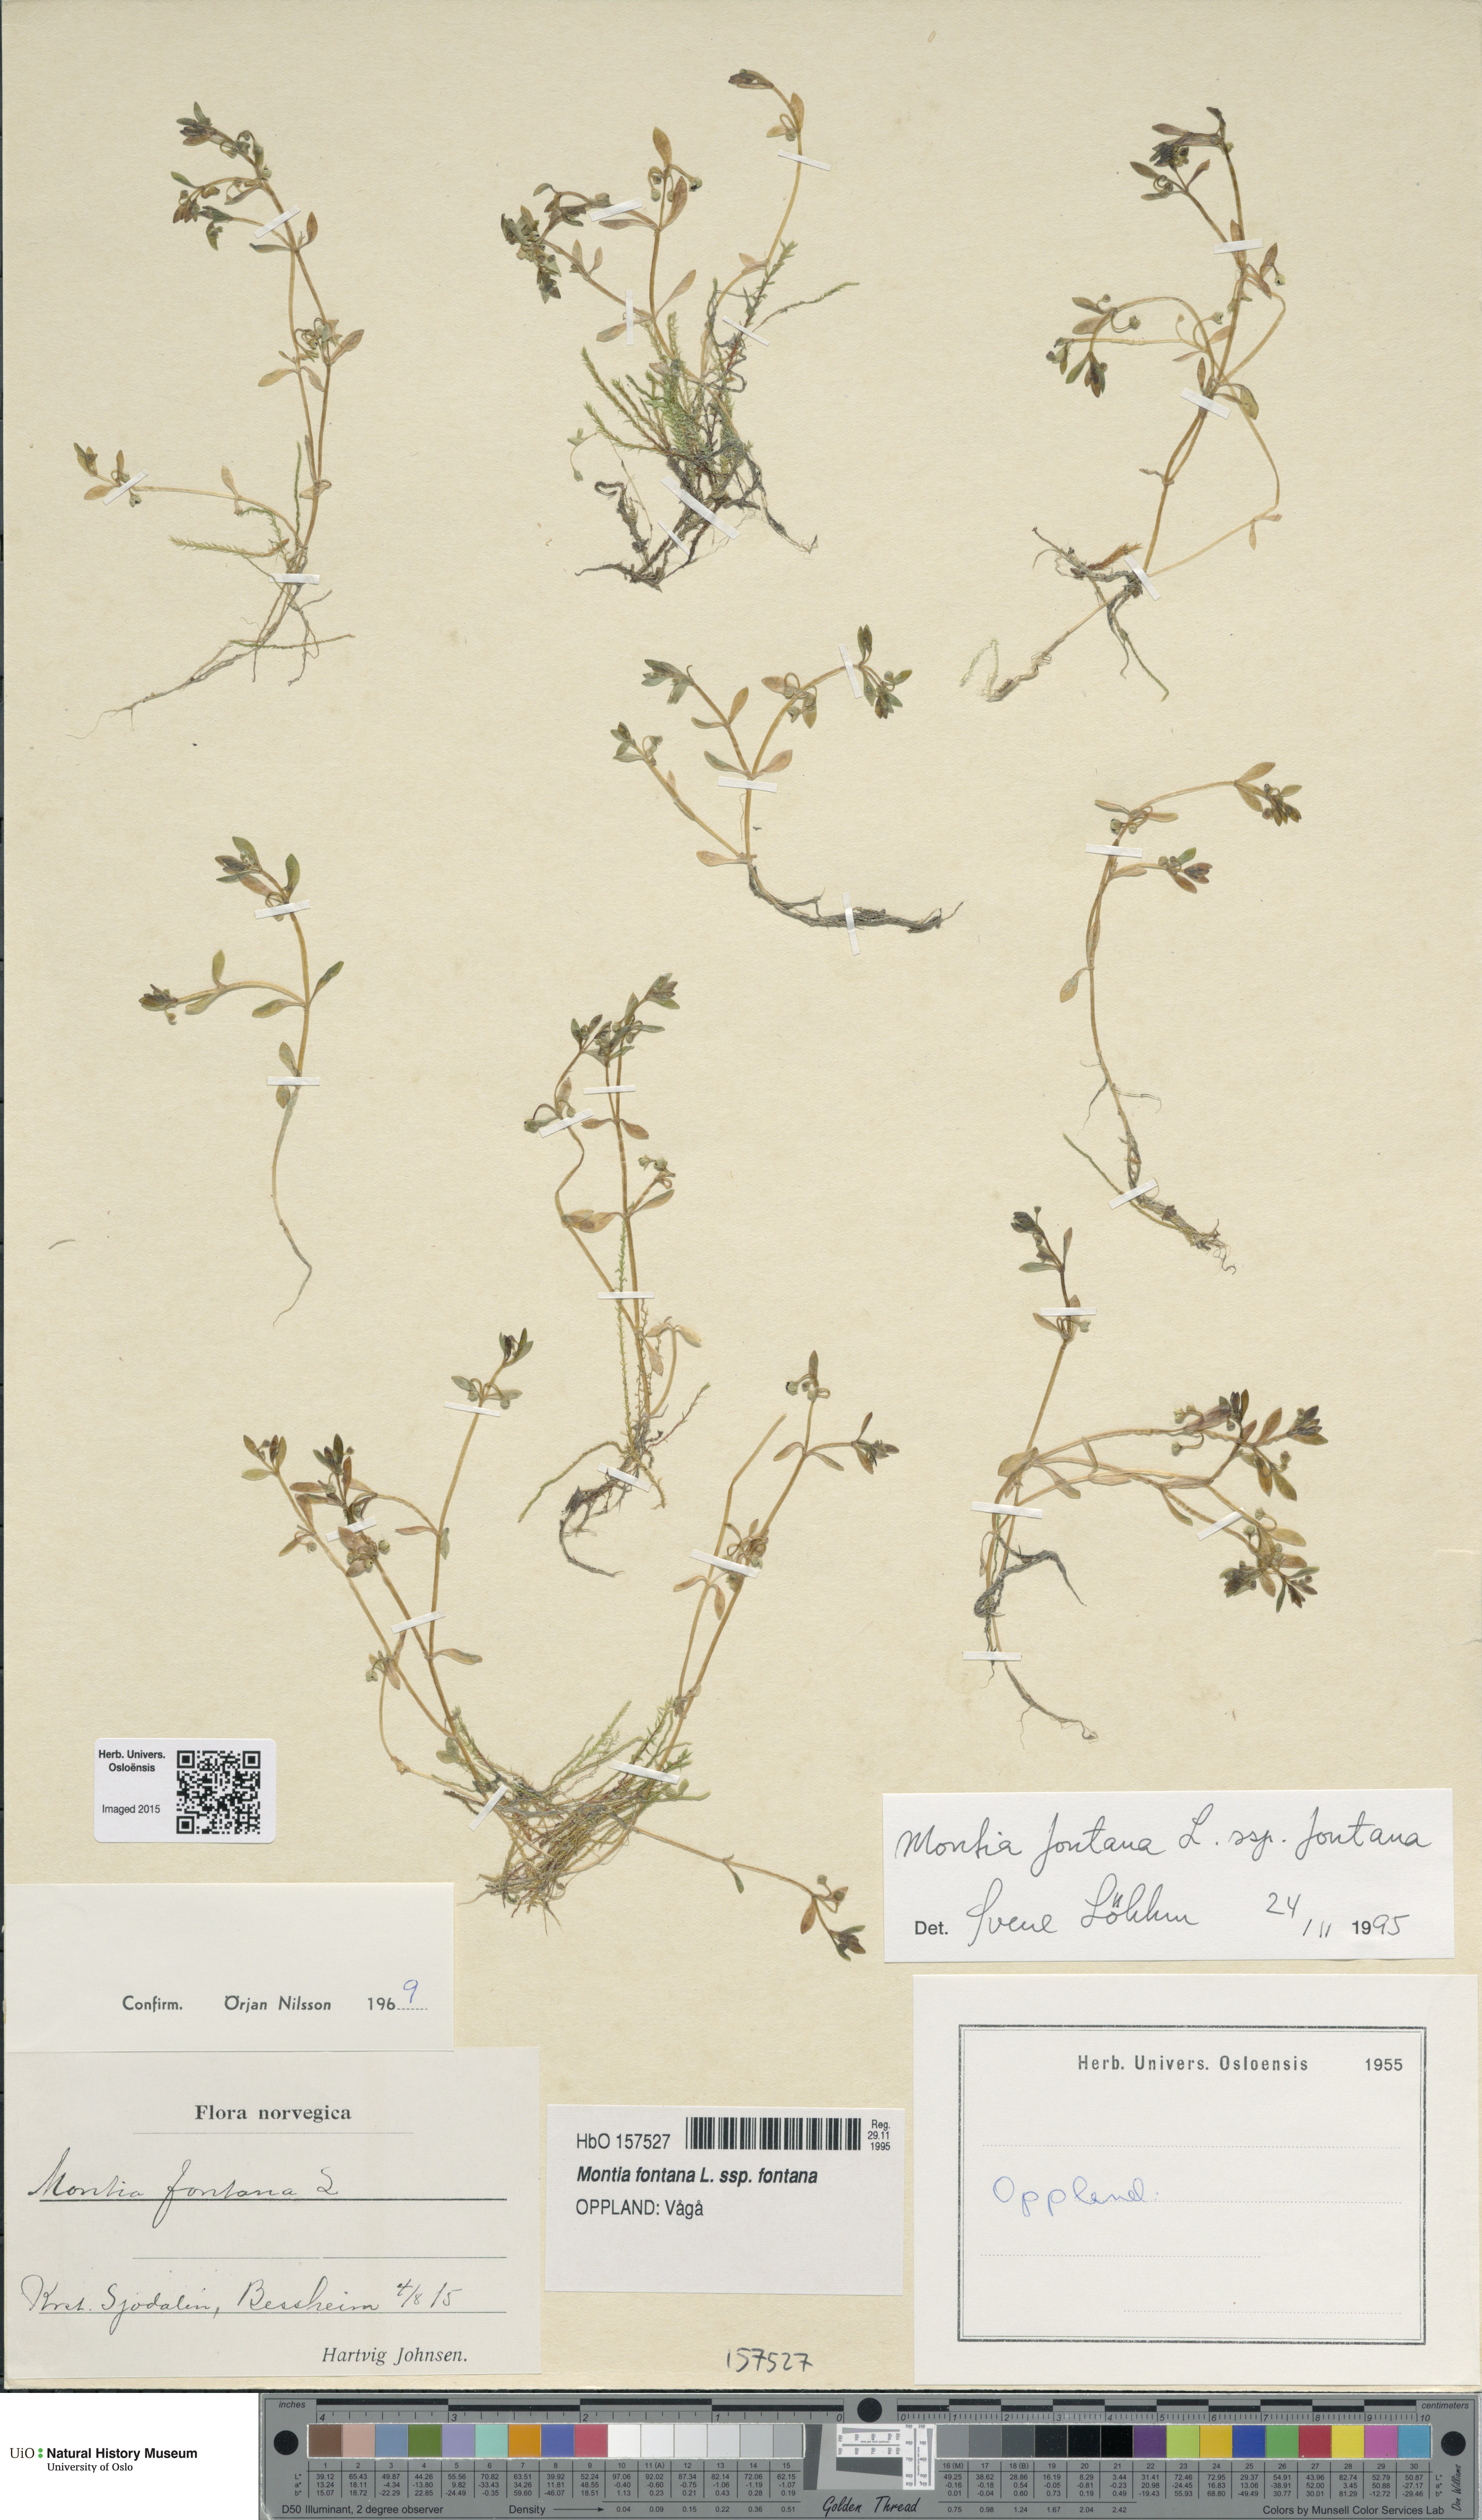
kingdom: Plantae
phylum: Tracheophyta
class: Magnoliopsida
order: Caryophyllales
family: Montiaceae
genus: Montia
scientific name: Montia fontana
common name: Blinks
